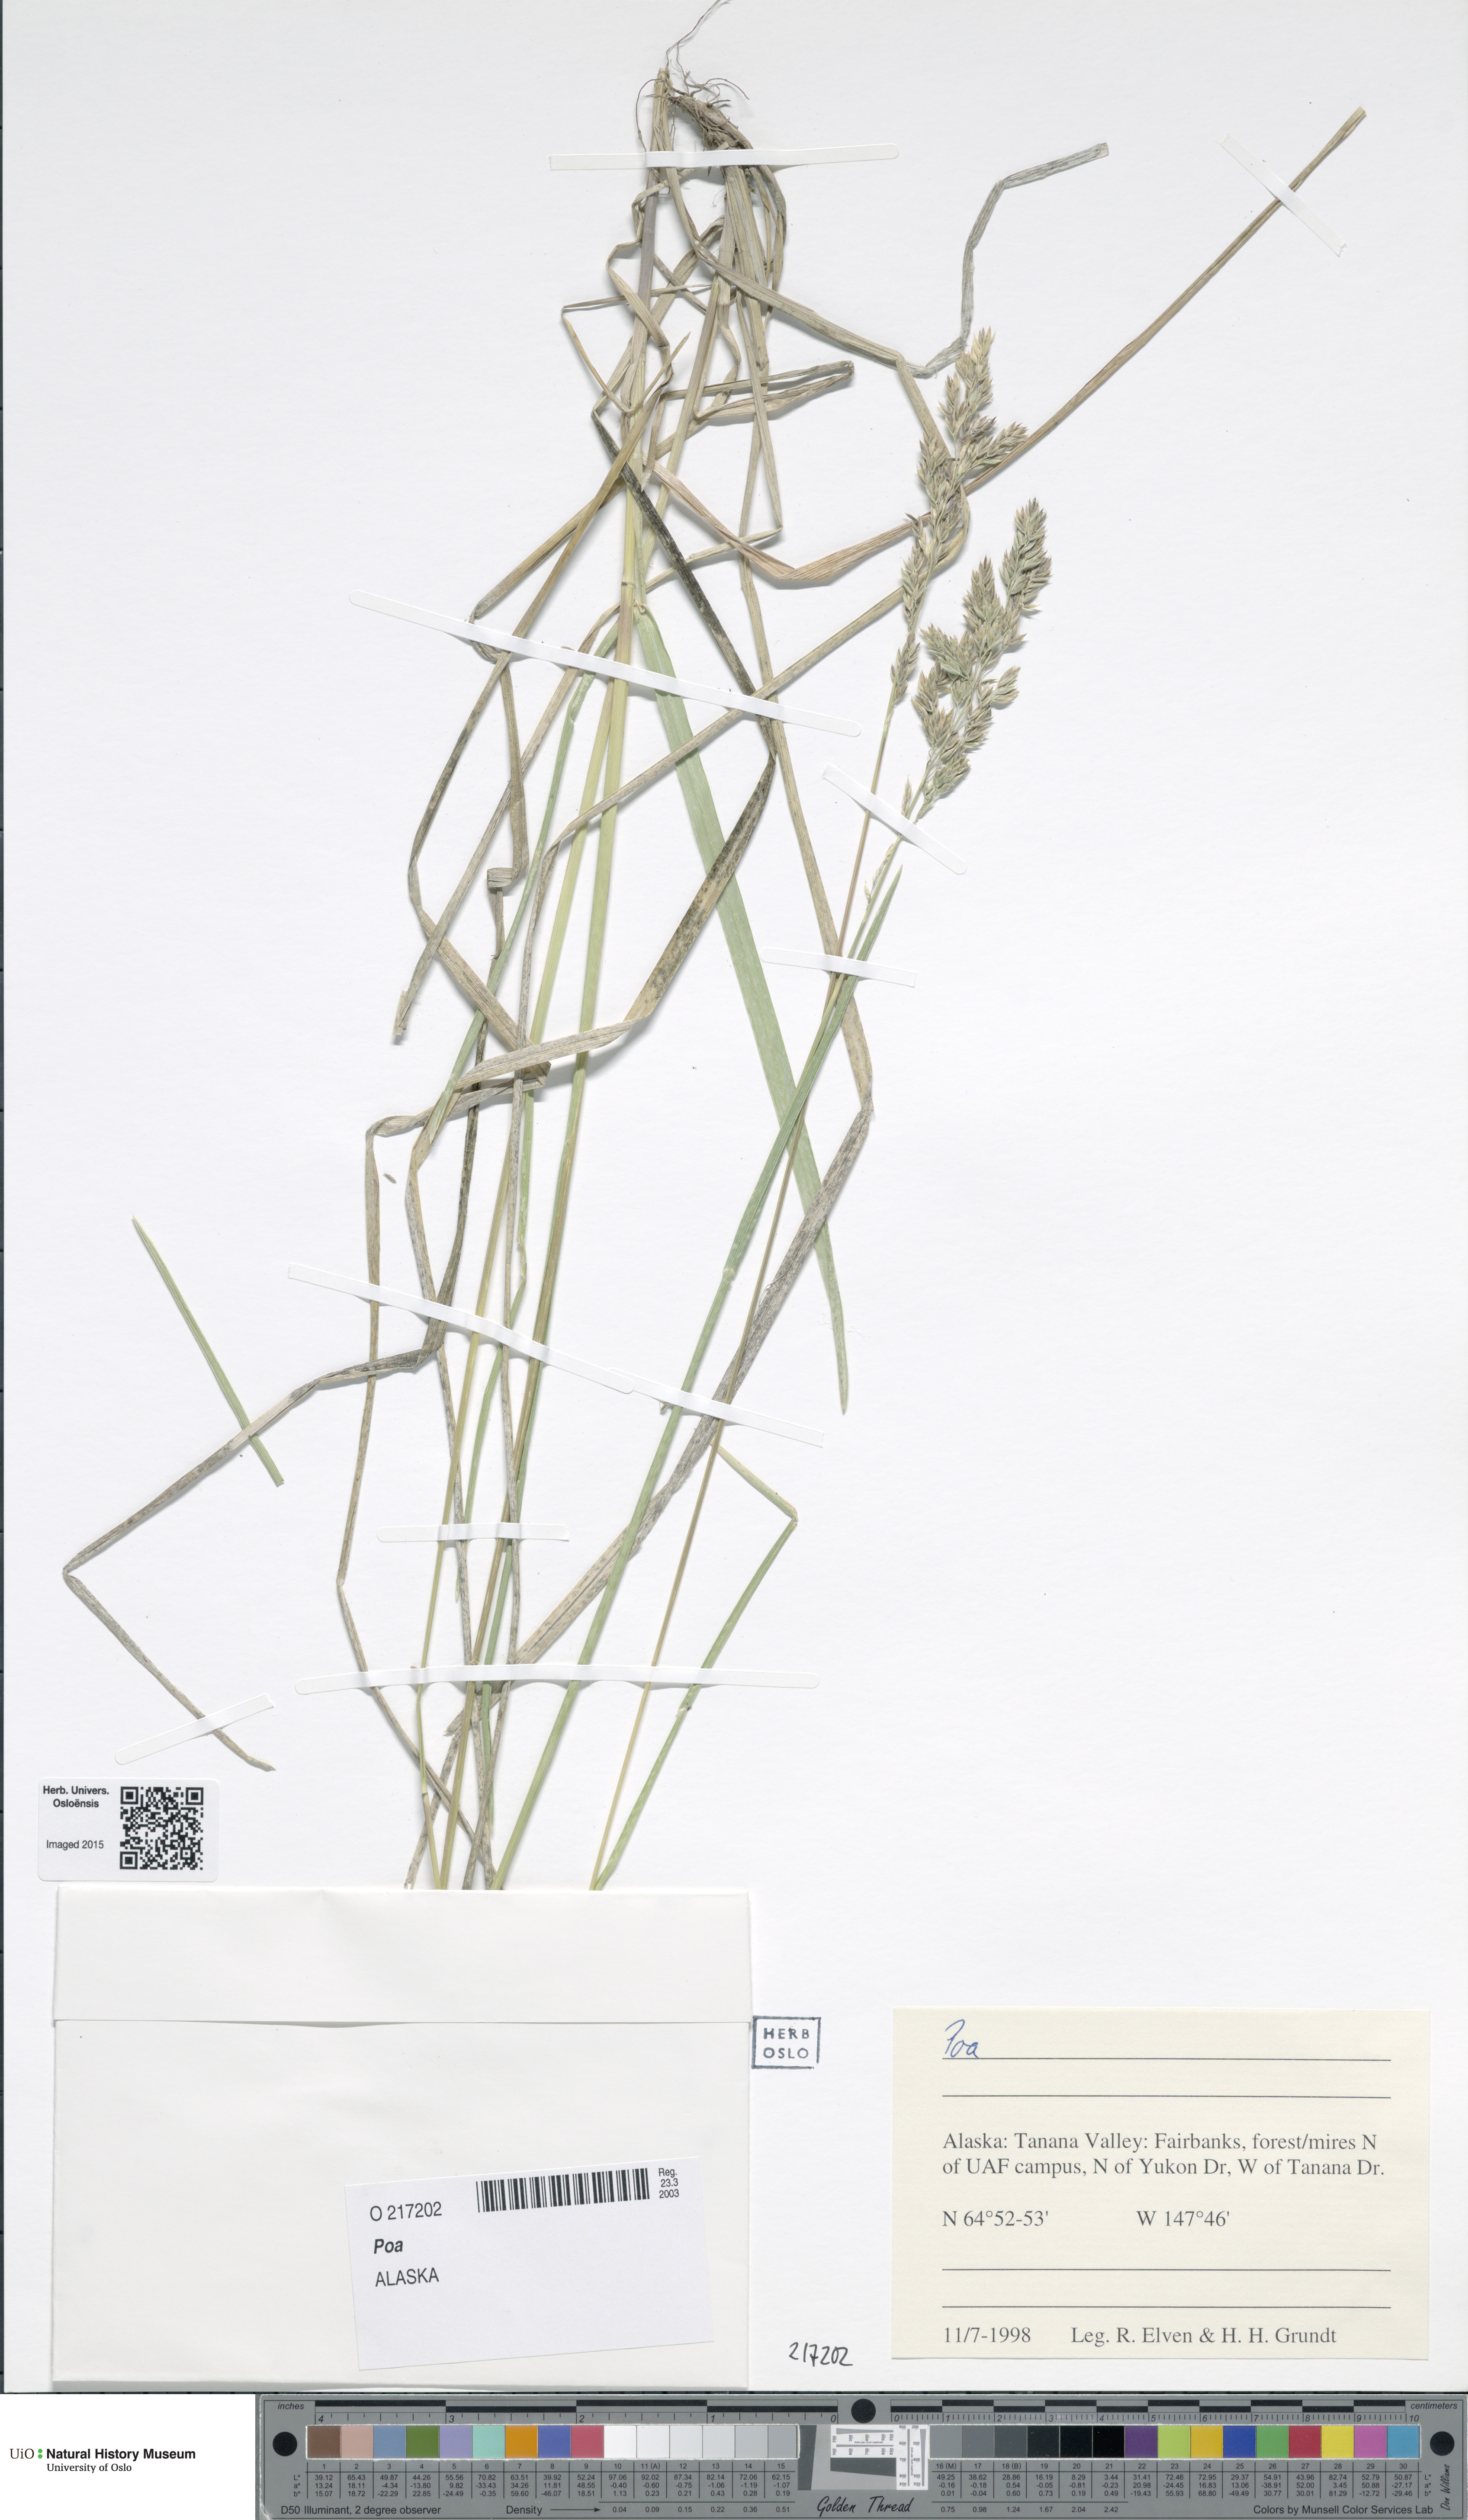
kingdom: Plantae
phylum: Tracheophyta
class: Liliopsida
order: Poales
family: Poaceae
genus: Poa
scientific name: Poa
